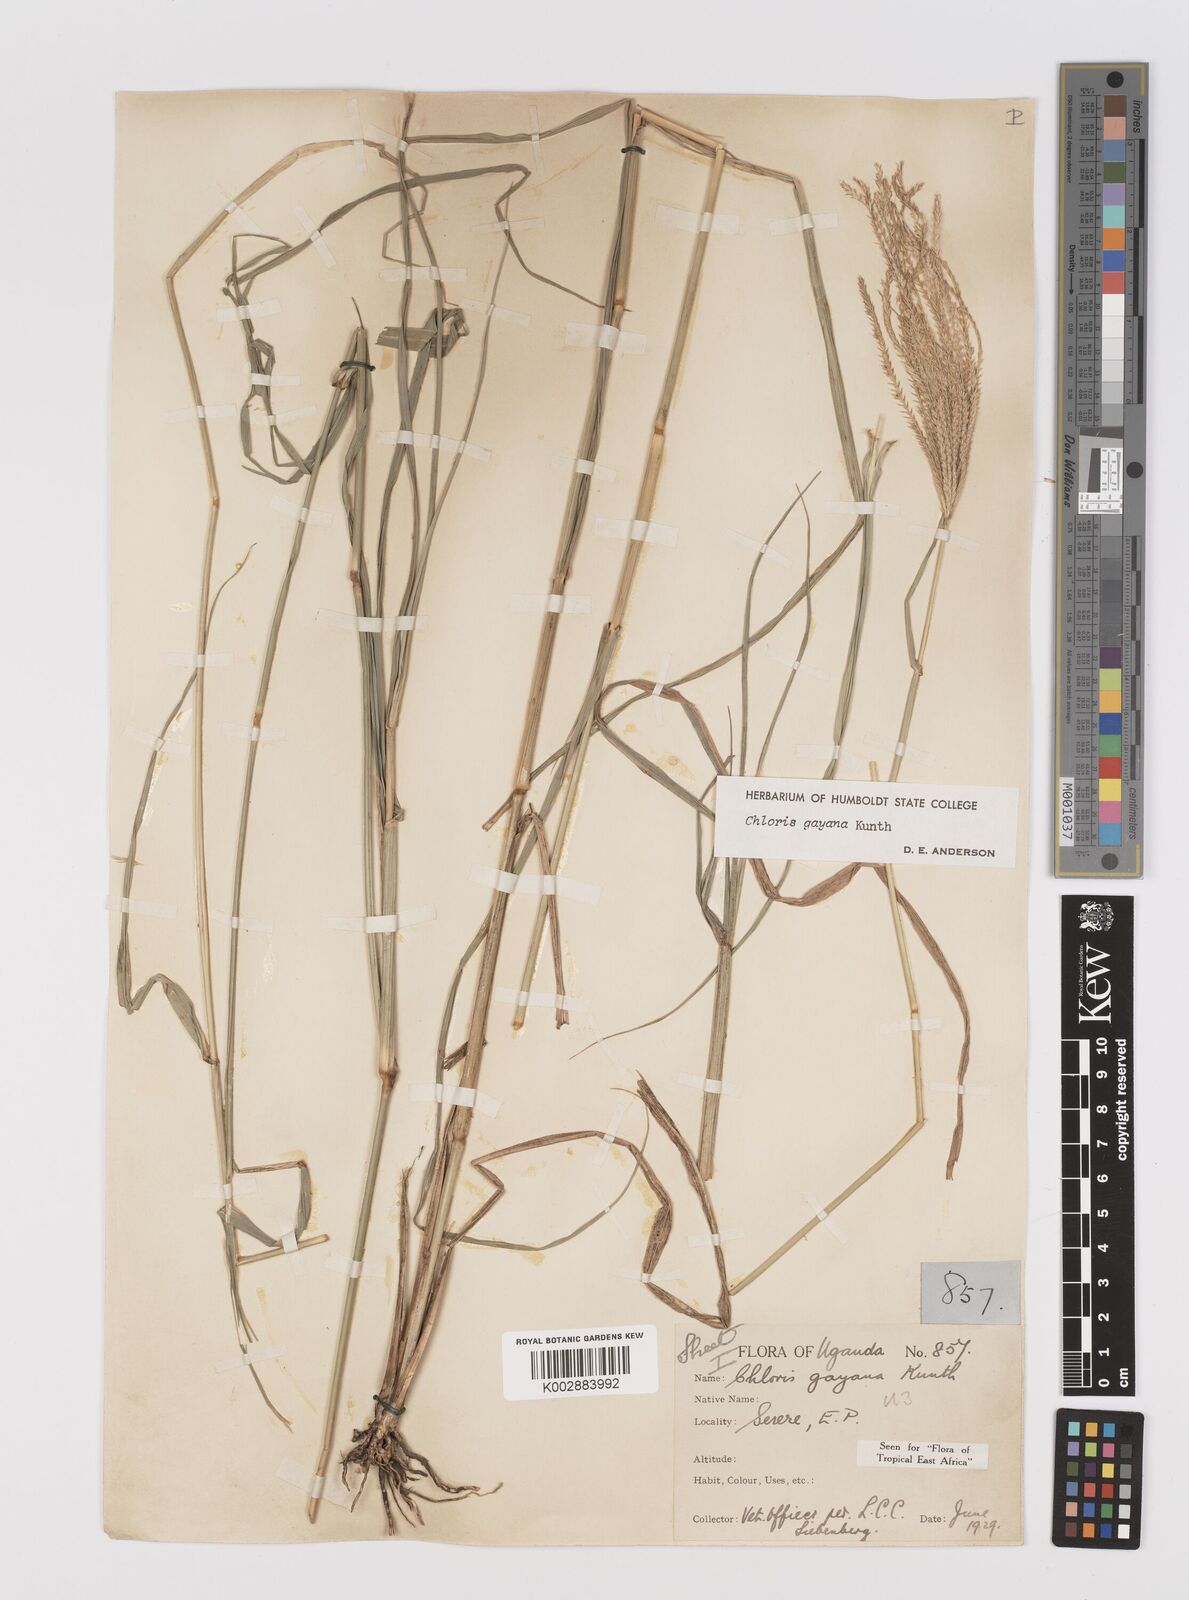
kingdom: Plantae
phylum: Tracheophyta
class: Liliopsida
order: Poales
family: Poaceae
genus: Chloris
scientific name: Chloris gayana
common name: Rhodes grass
